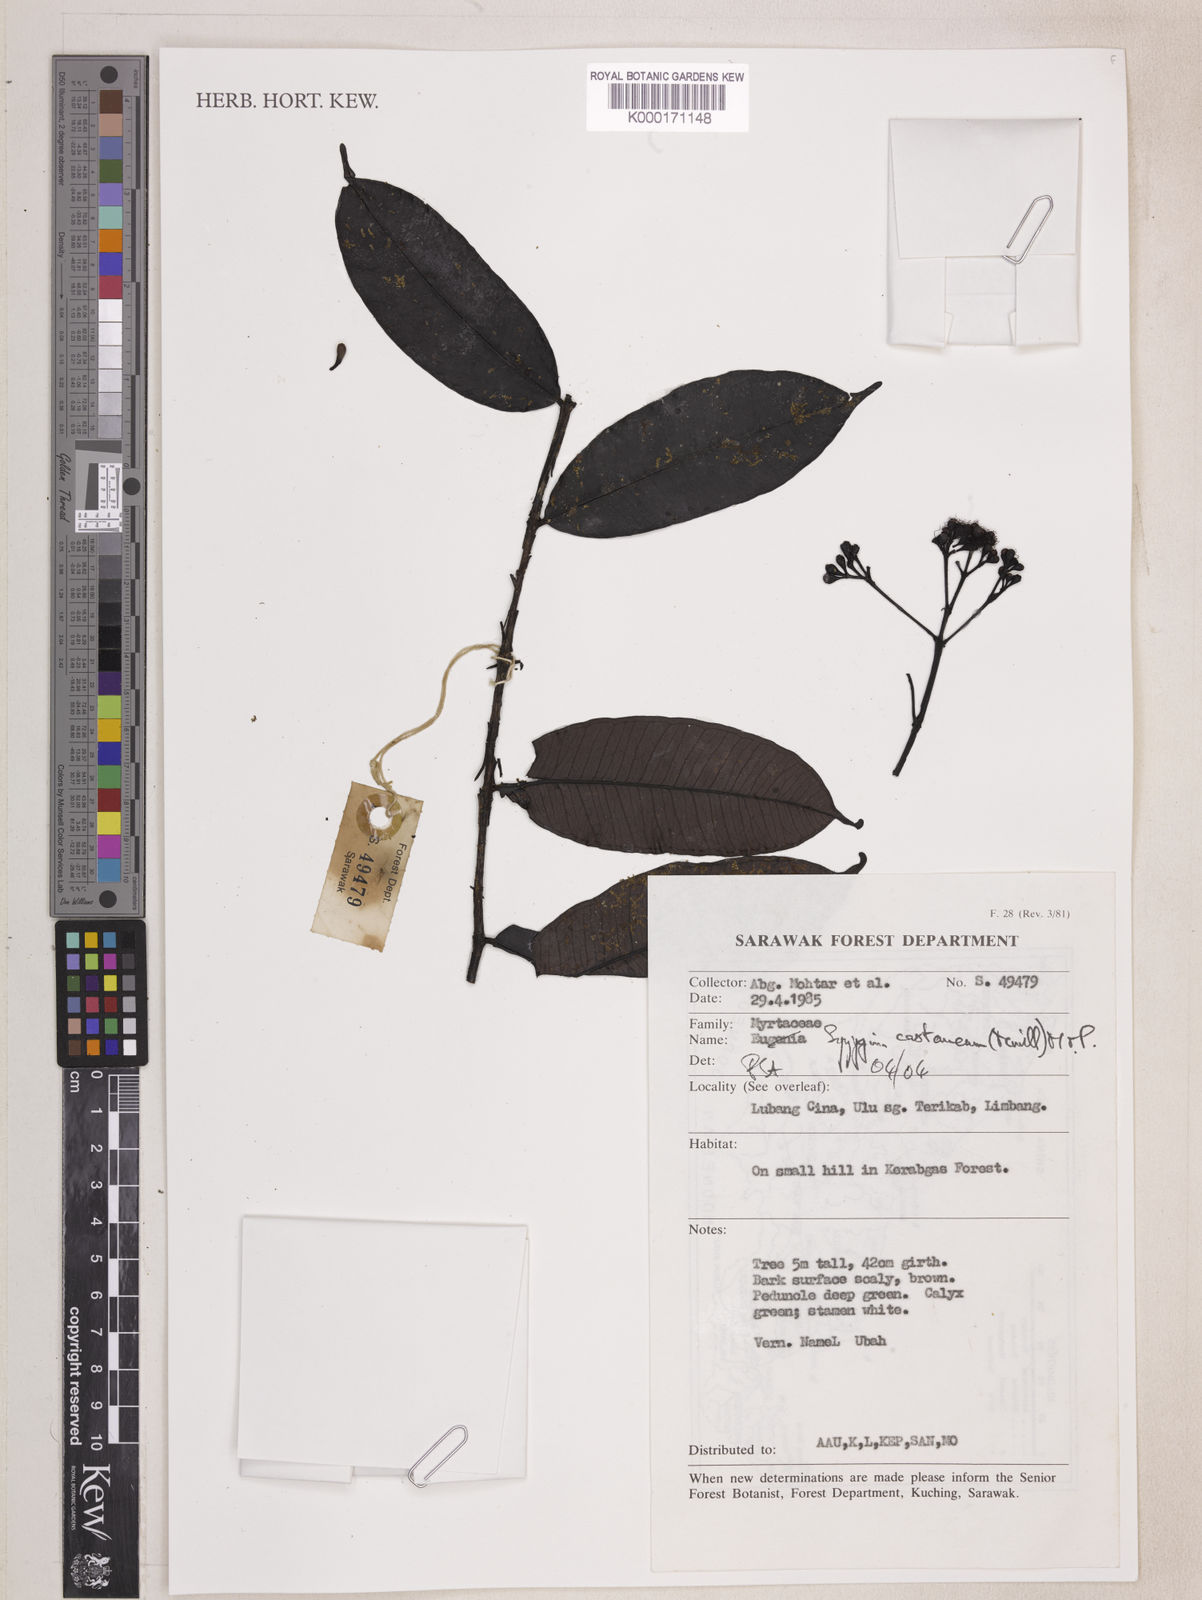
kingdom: Plantae
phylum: Tracheophyta
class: Magnoliopsida
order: Myrtales
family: Myrtaceae
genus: Syzygium
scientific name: Syzygium castaneum
